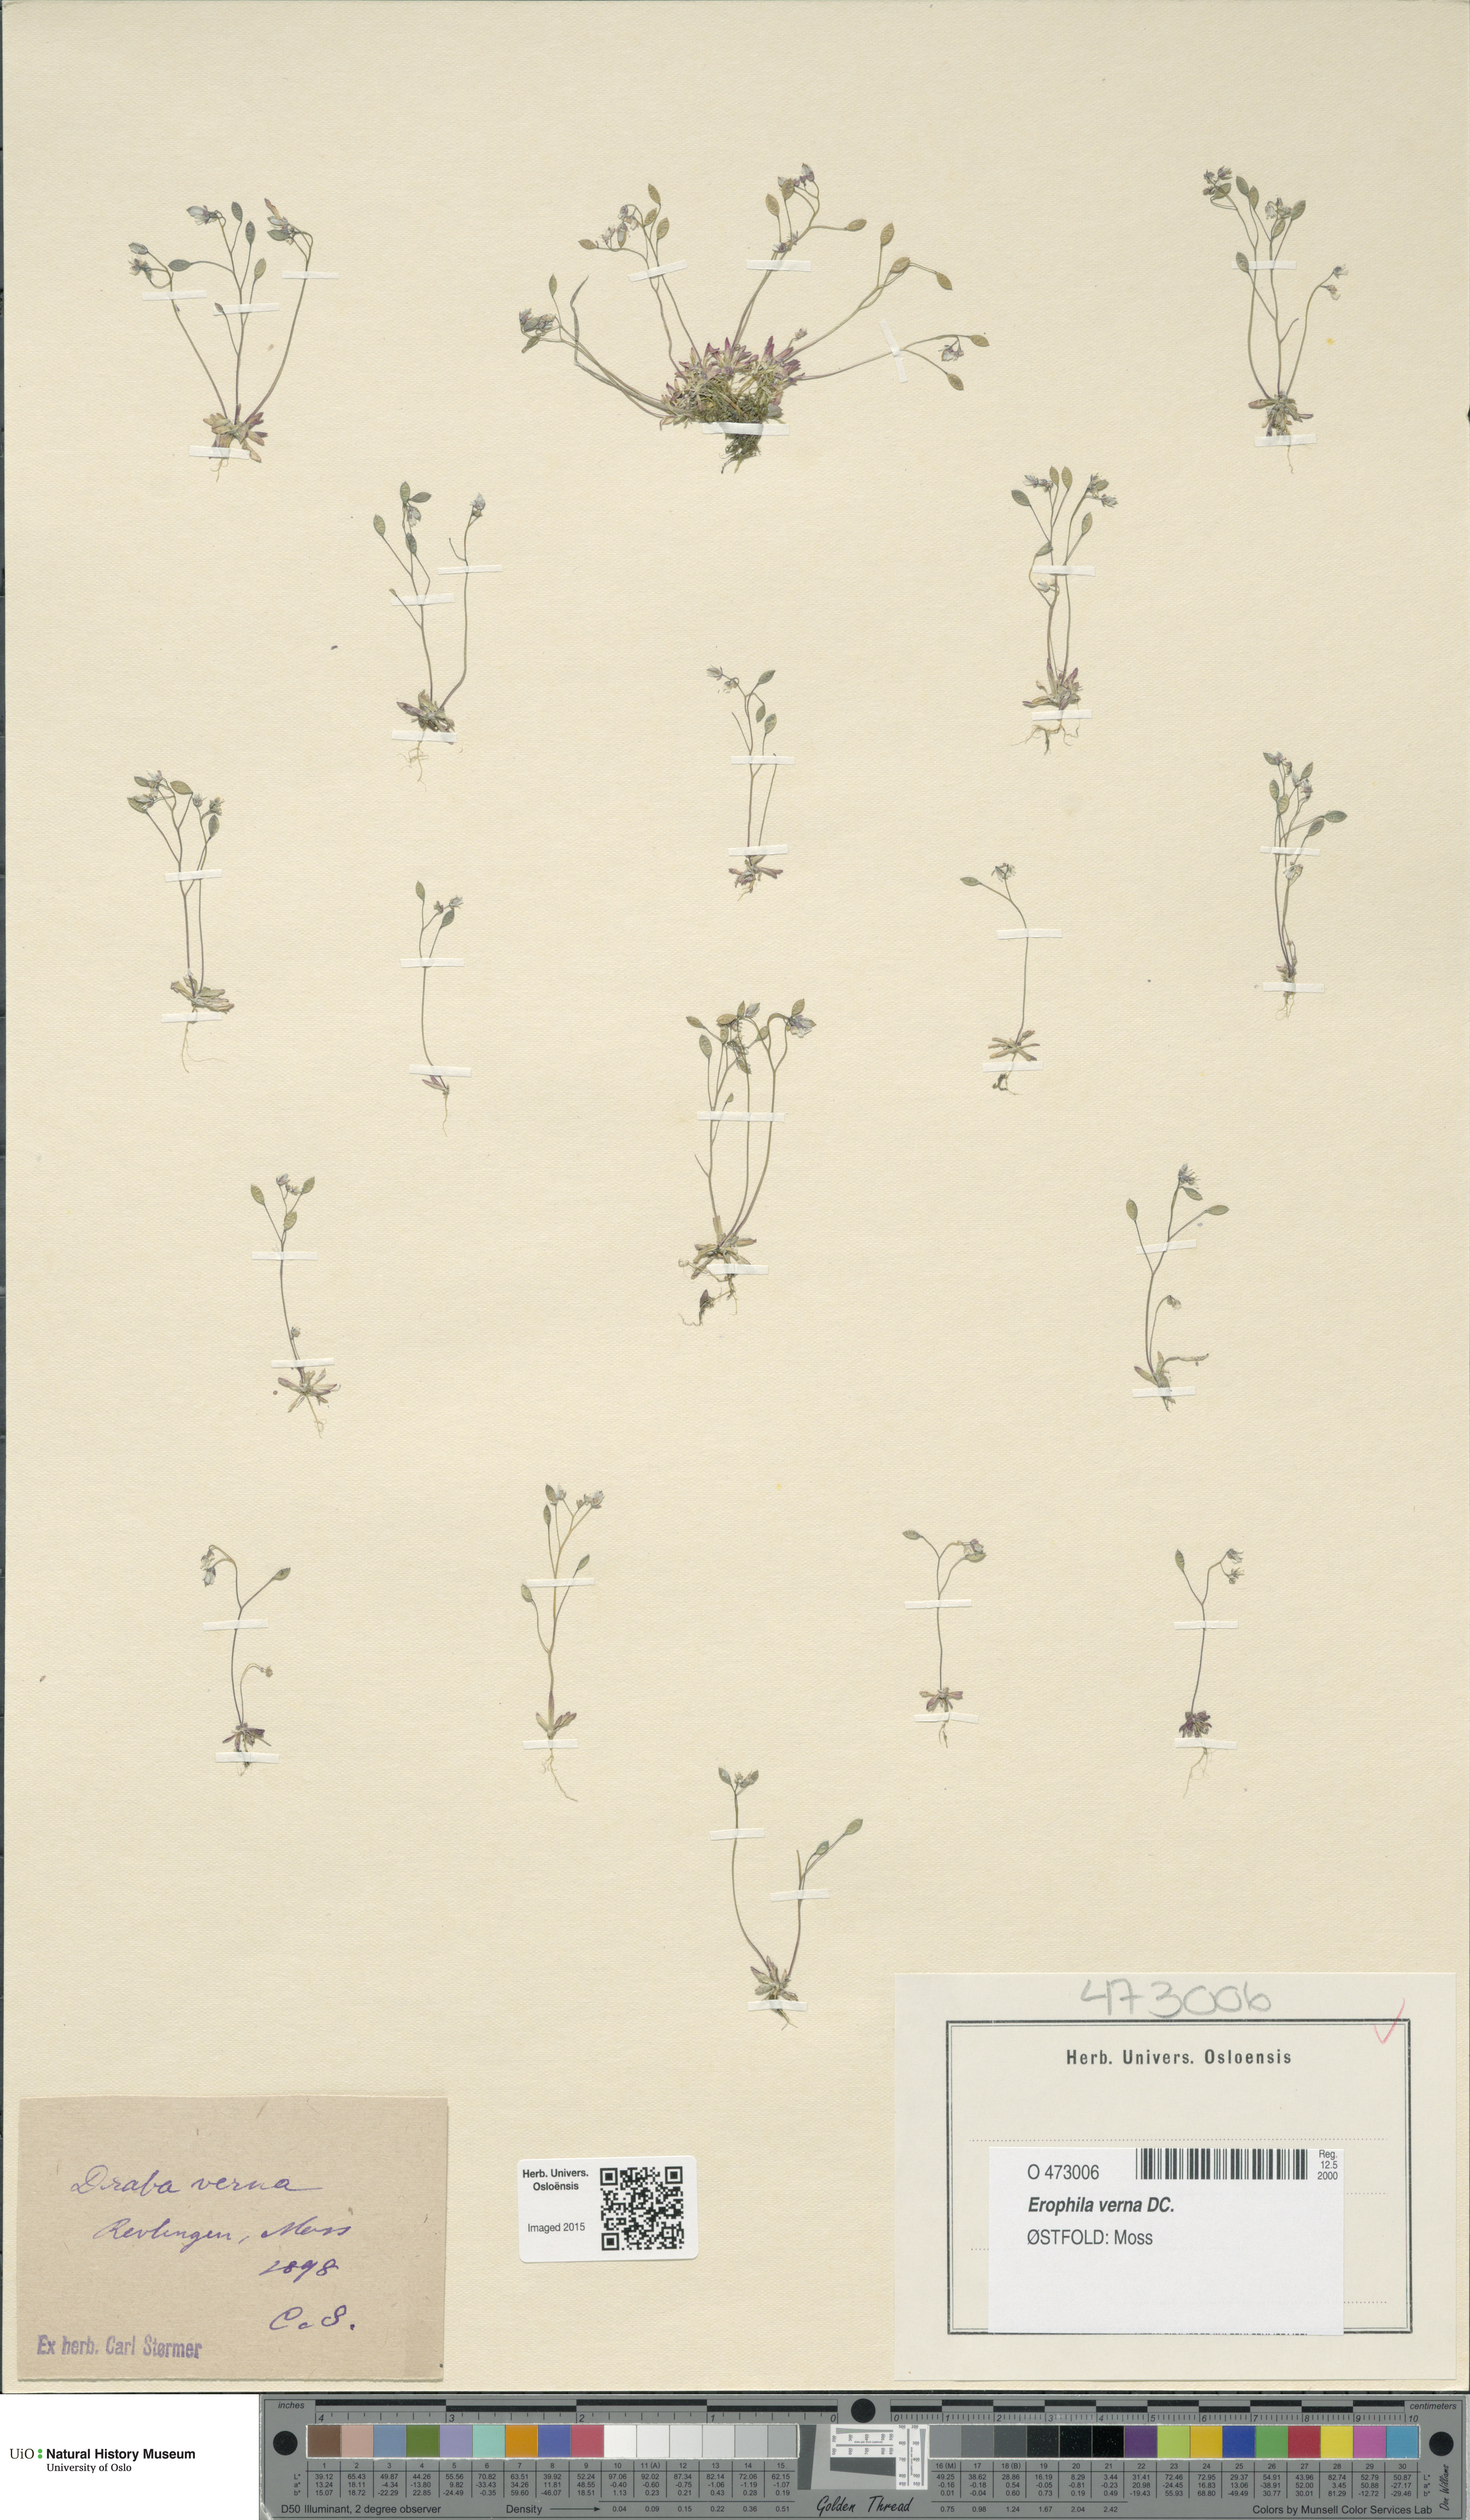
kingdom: Plantae
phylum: Tracheophyta
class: Magnoliopsida
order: Brassicales
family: Brassicaceae
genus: Draba
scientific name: Draba verna
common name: Spring draba
